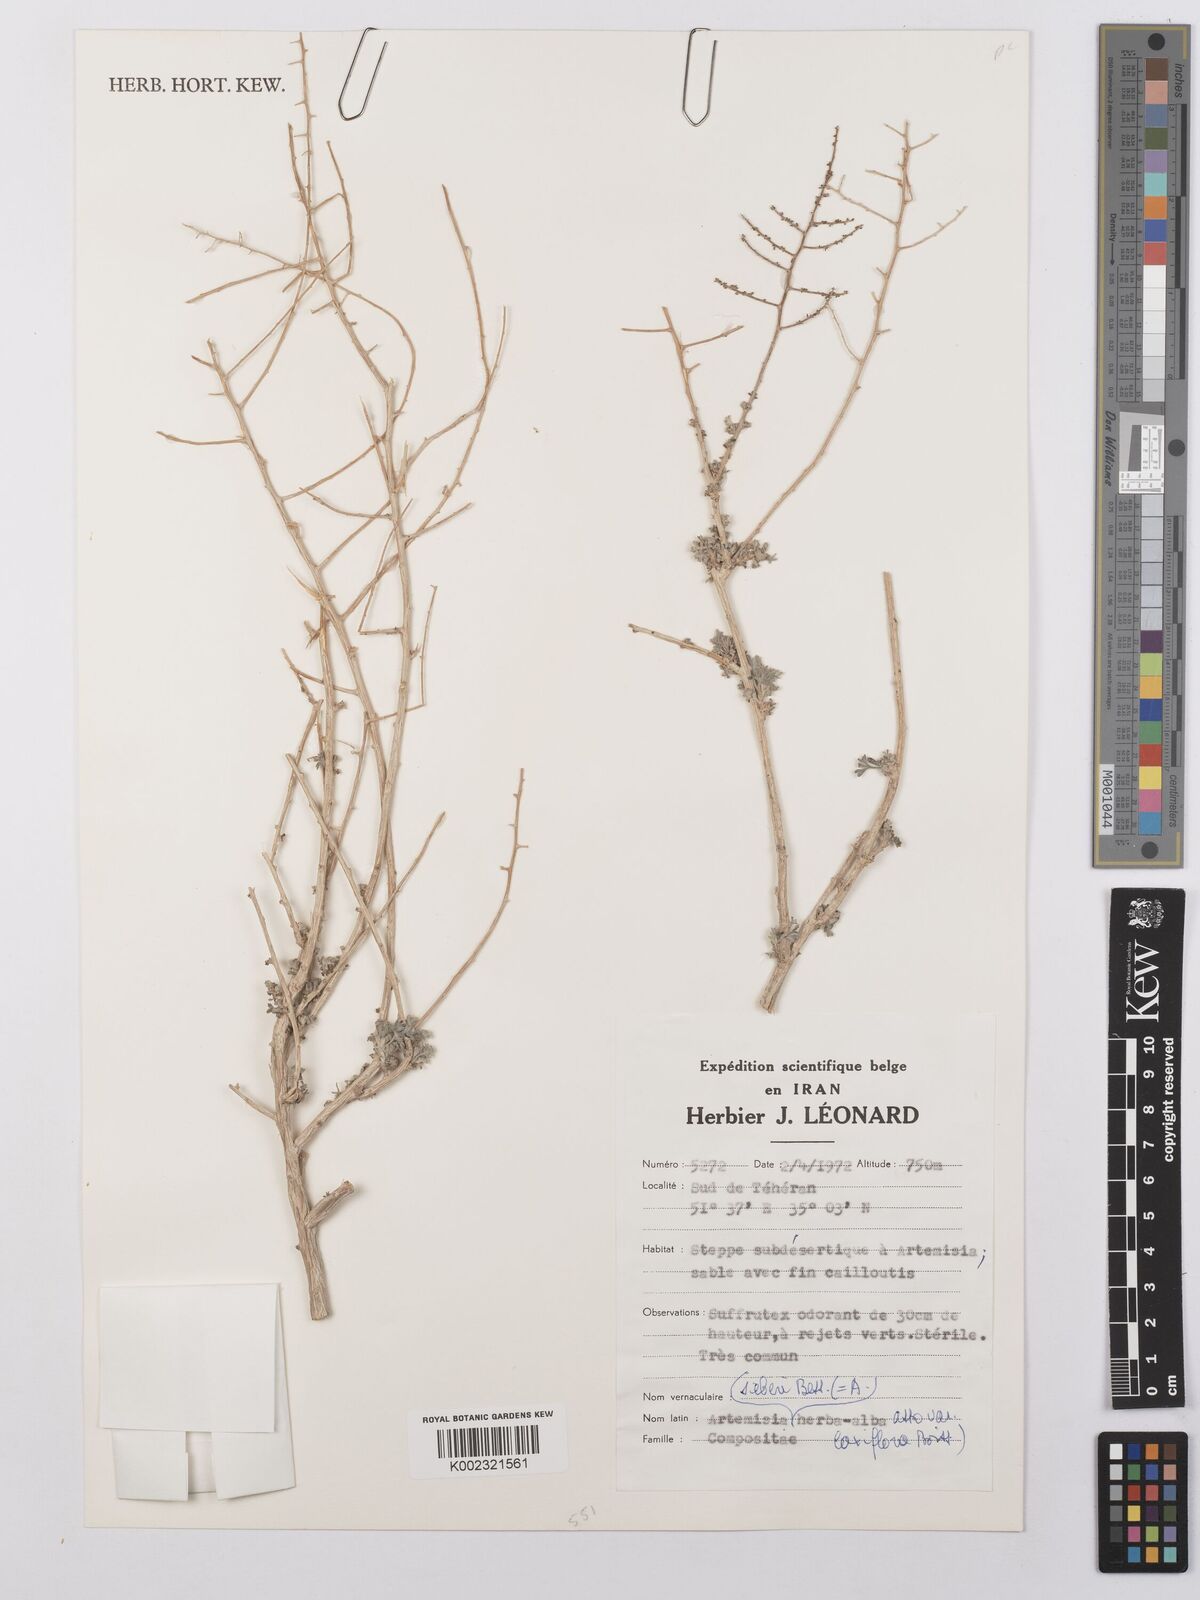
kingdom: Plantae
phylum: Tracheophyta
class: Magnoliopsida
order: Asterales
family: Asteraceae
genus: Artemisia
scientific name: Artemisia sieberi
